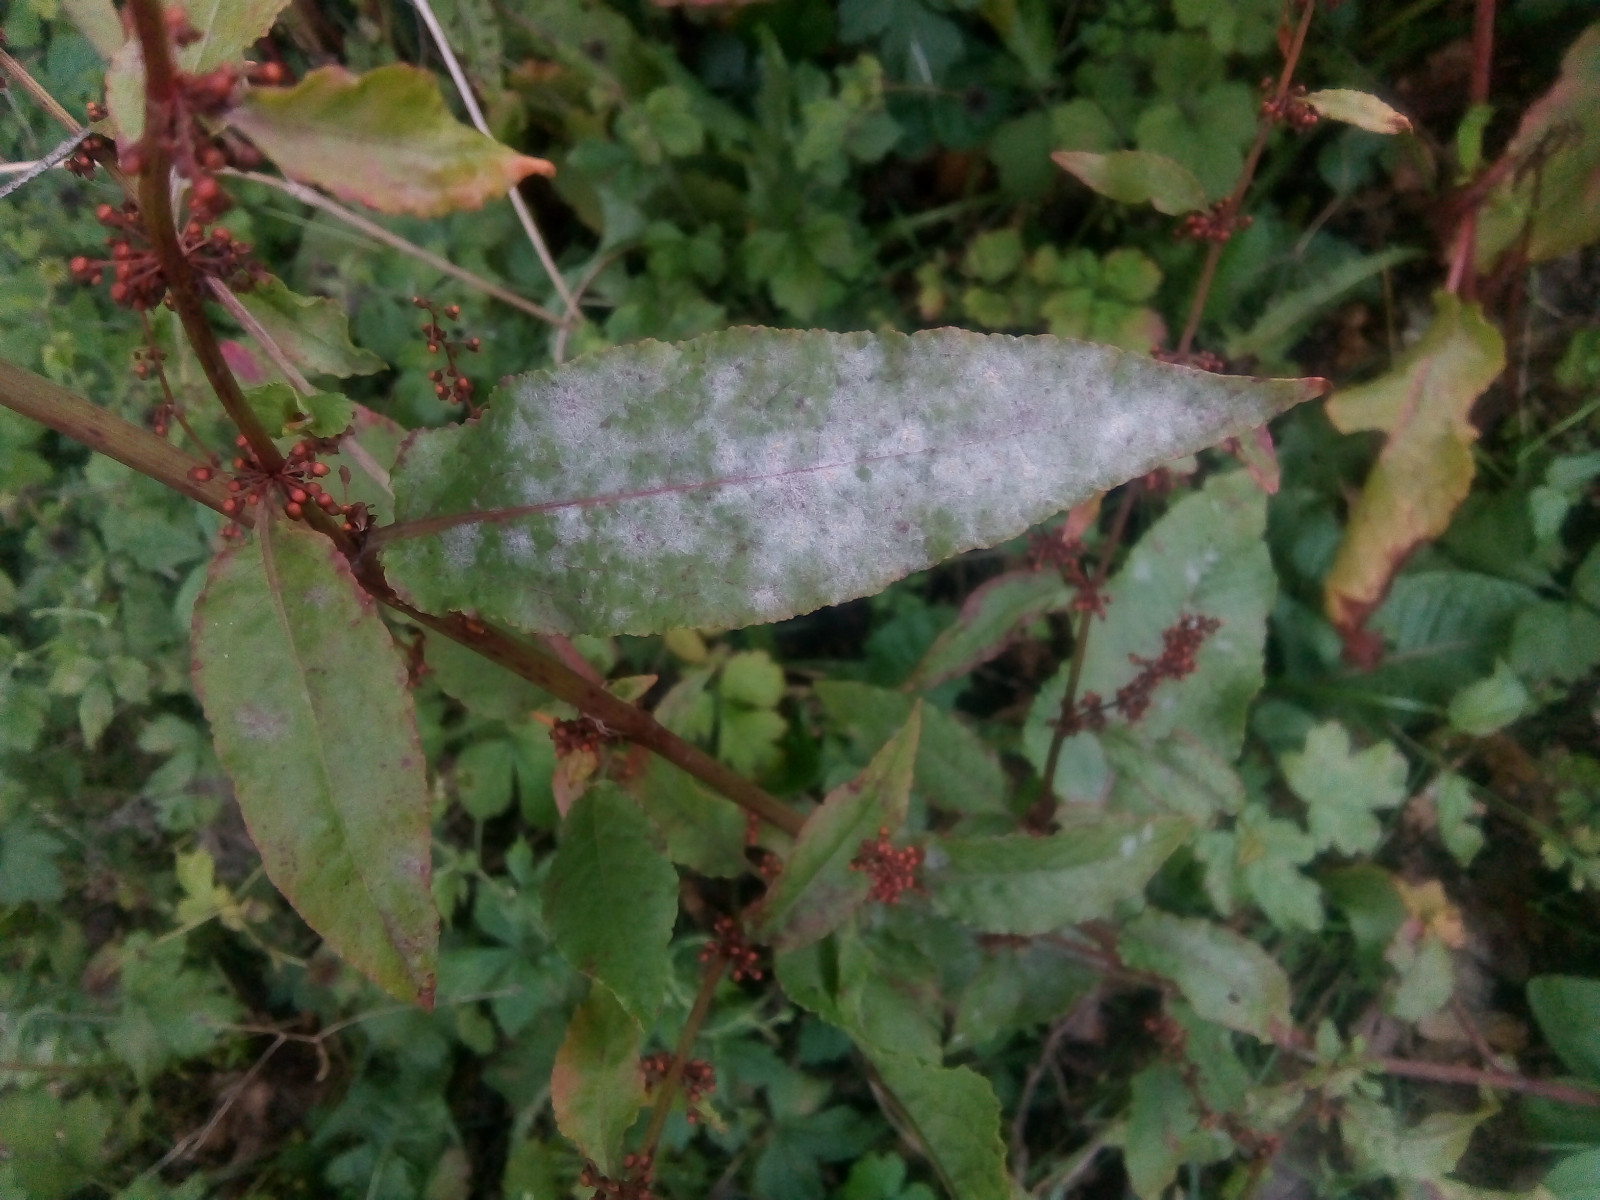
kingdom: Fungi
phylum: Ascomycota
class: Leotiomycetes
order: Helotiales
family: Erysiphaceae
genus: Erysiphe
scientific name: Erysiphe polygoni
